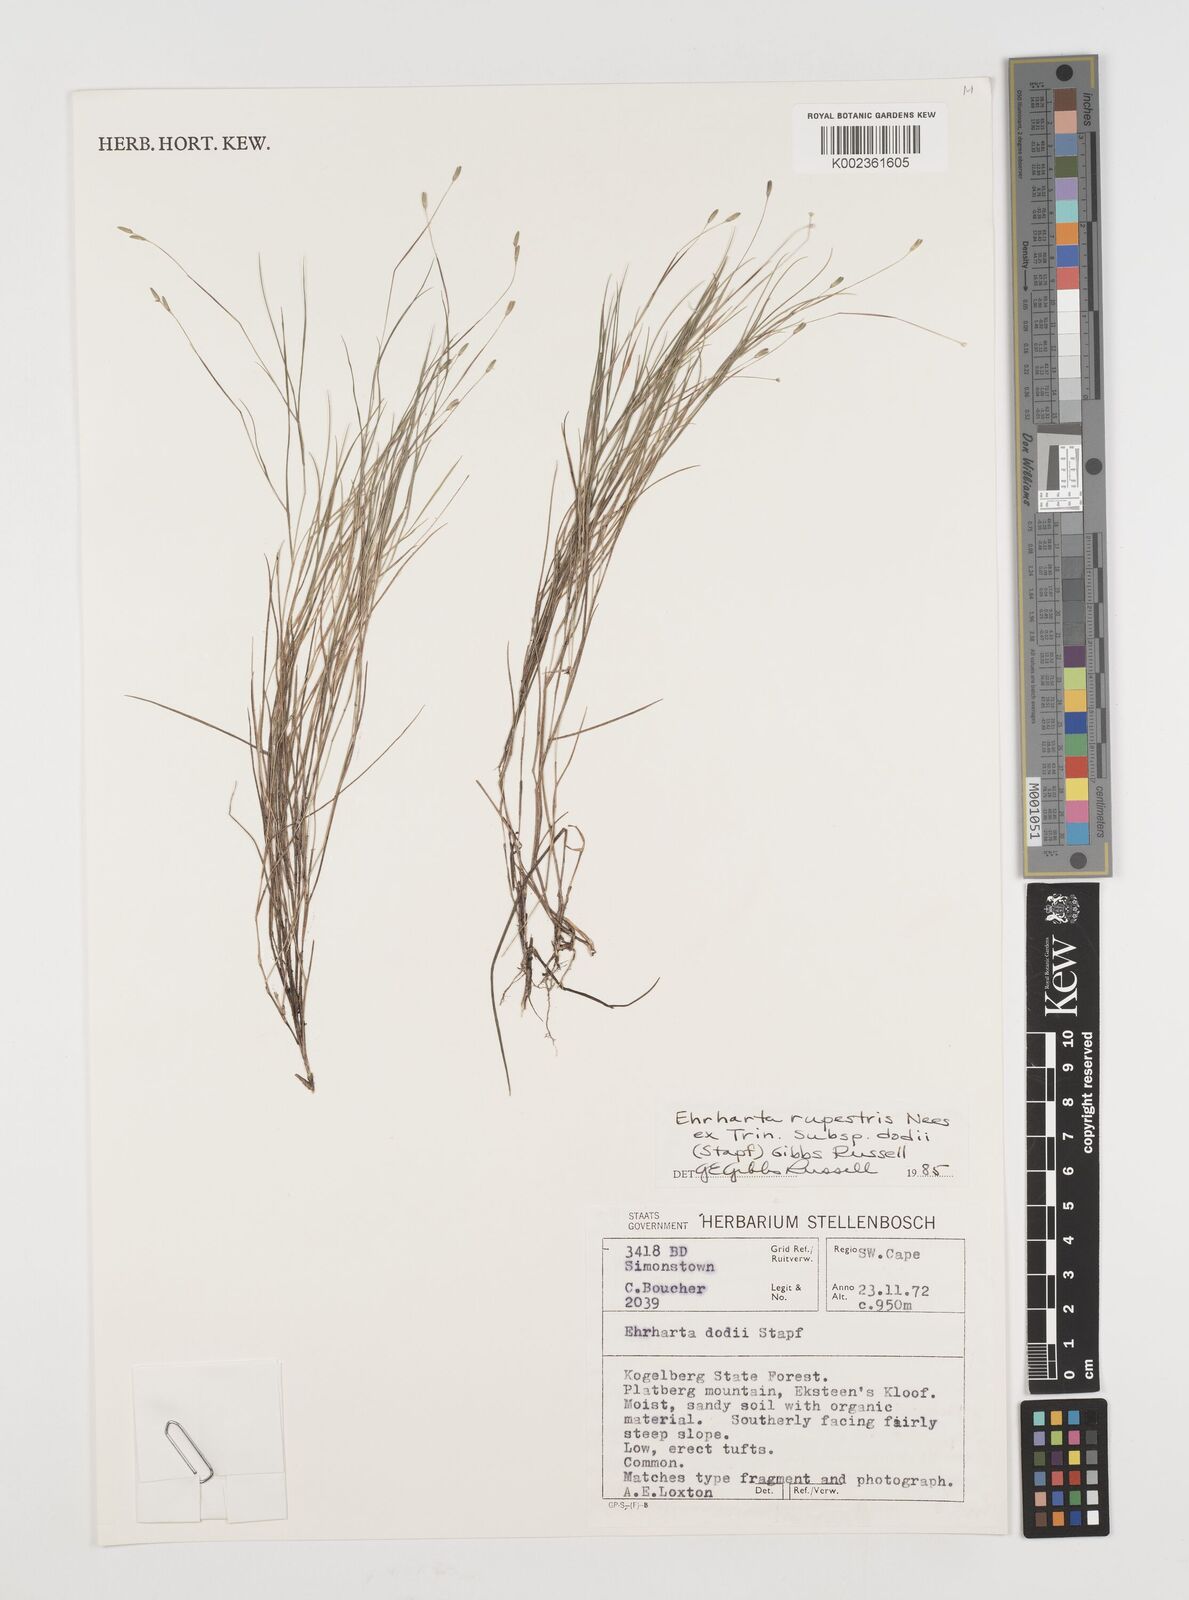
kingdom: Plantae
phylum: Tracheophyta
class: Liliopsida
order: Poales
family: Poaceae
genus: Ehrharta
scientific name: Ehrharta rupestris
